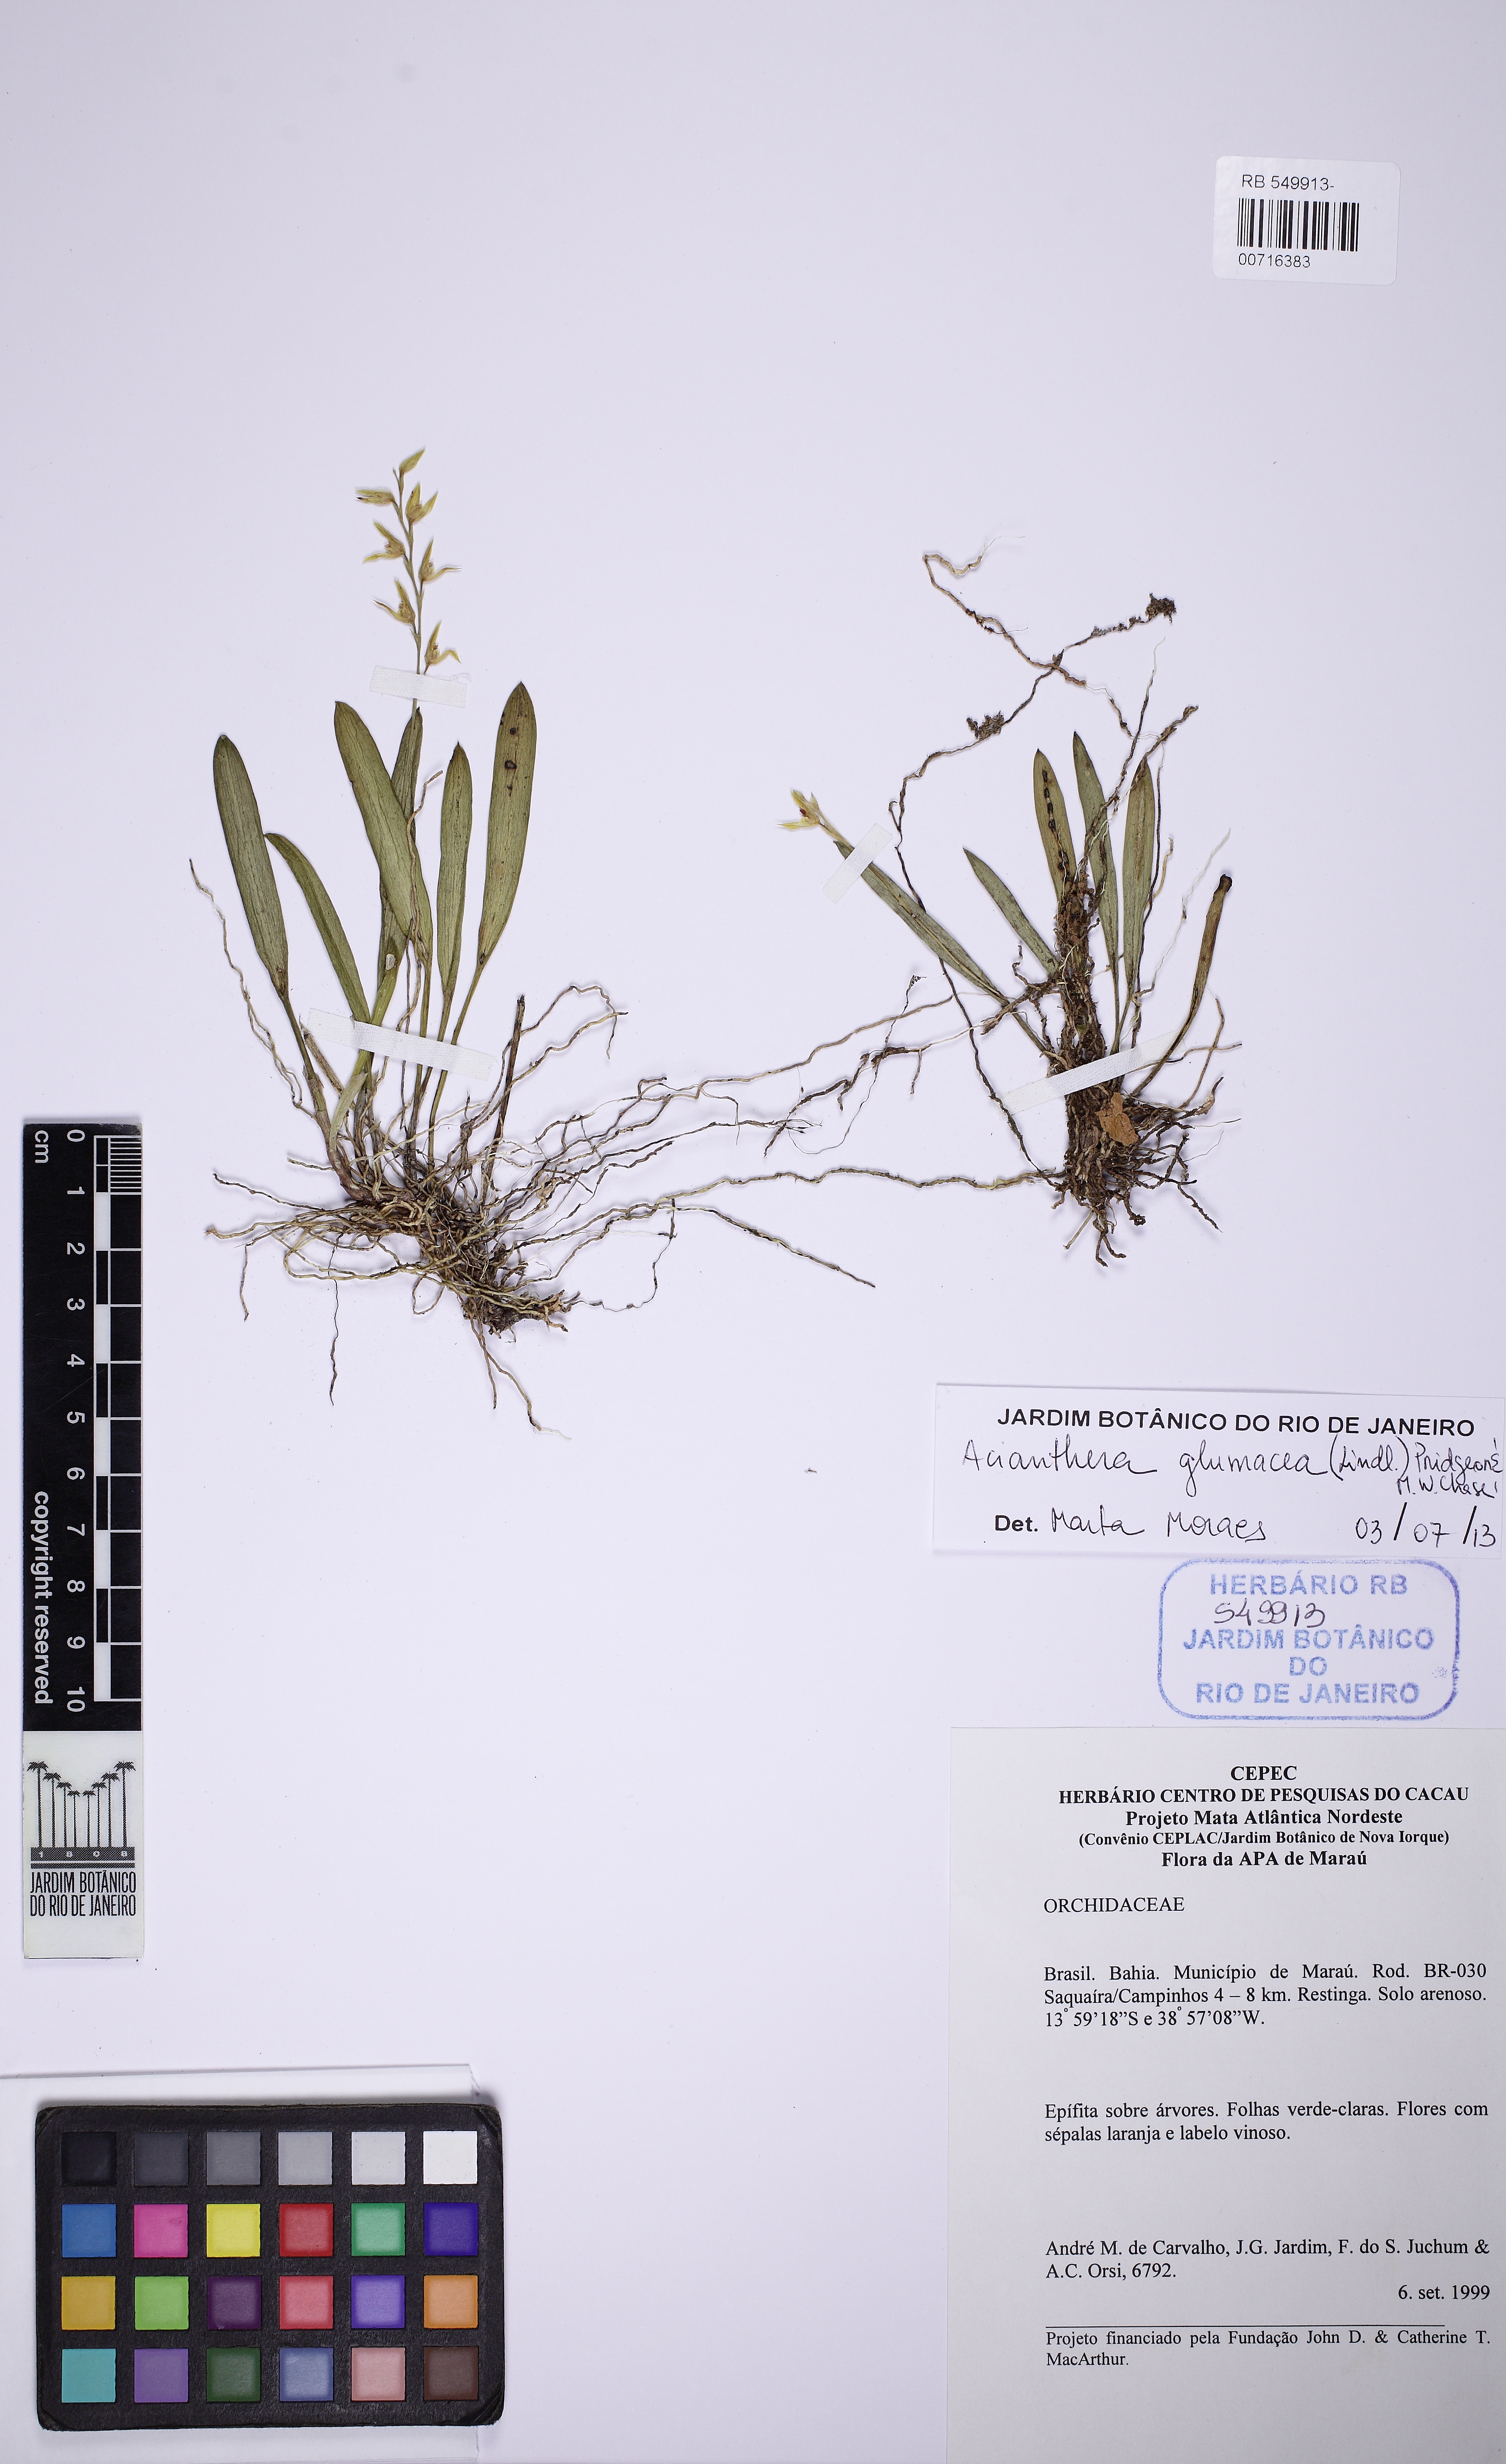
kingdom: Plantae
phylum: Tracheophyta
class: Liliopsida
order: Asparagales
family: Orchidaceae
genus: Acianthera
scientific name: Acianthera glumacea
